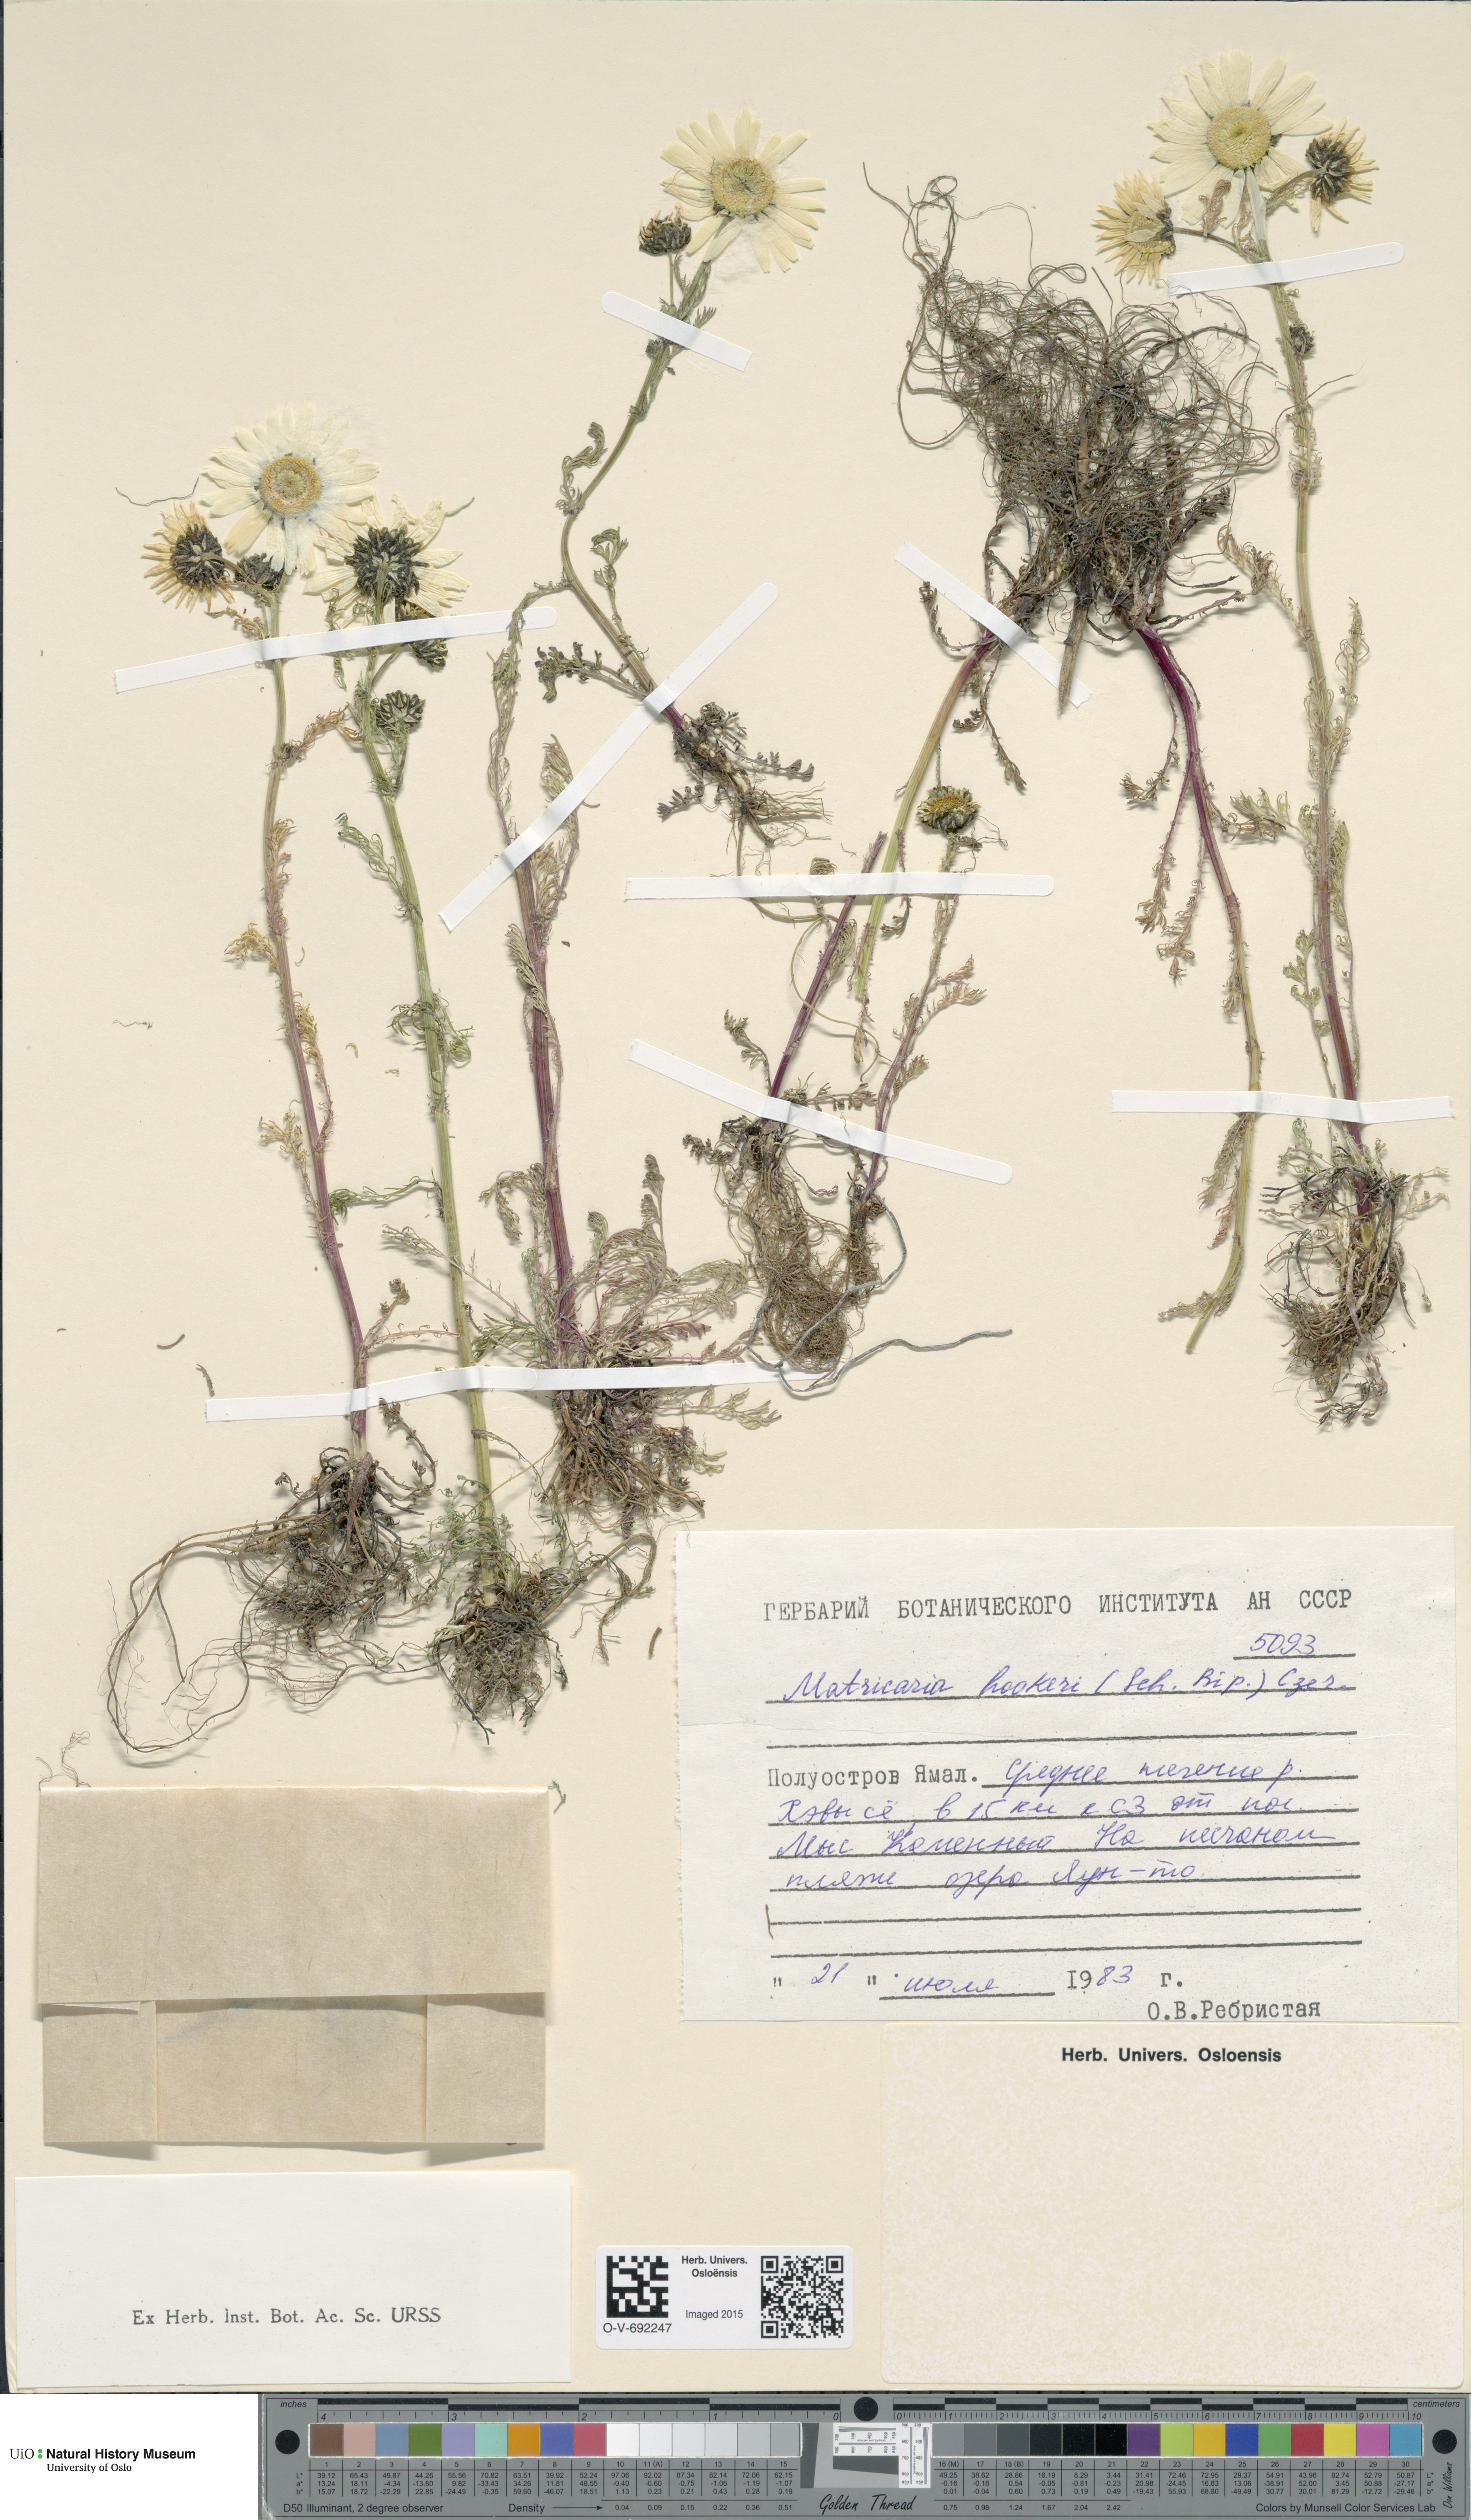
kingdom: Plantae
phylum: Tracheophyta
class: Magnoliopsida
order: Asterales
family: Asteraceae
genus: Tripleurospermum
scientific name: Tripleurospermum hookeri
